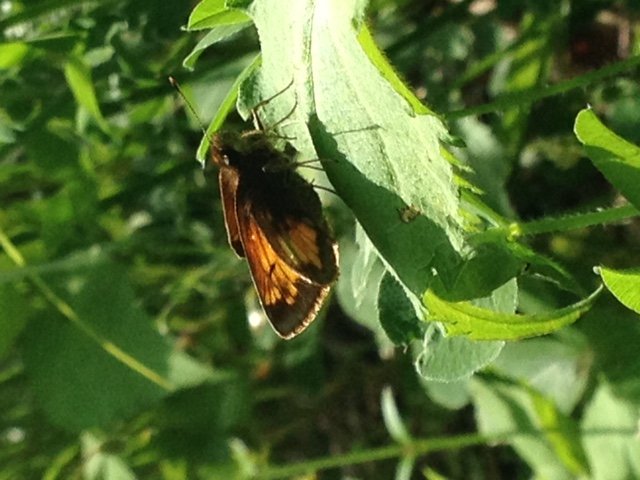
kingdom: Animalia
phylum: Arthropoda
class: Insecta
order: Lepidoptera
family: Hesperiidae
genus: Lon
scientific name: Lon hobomok
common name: Hobomok Skipper
